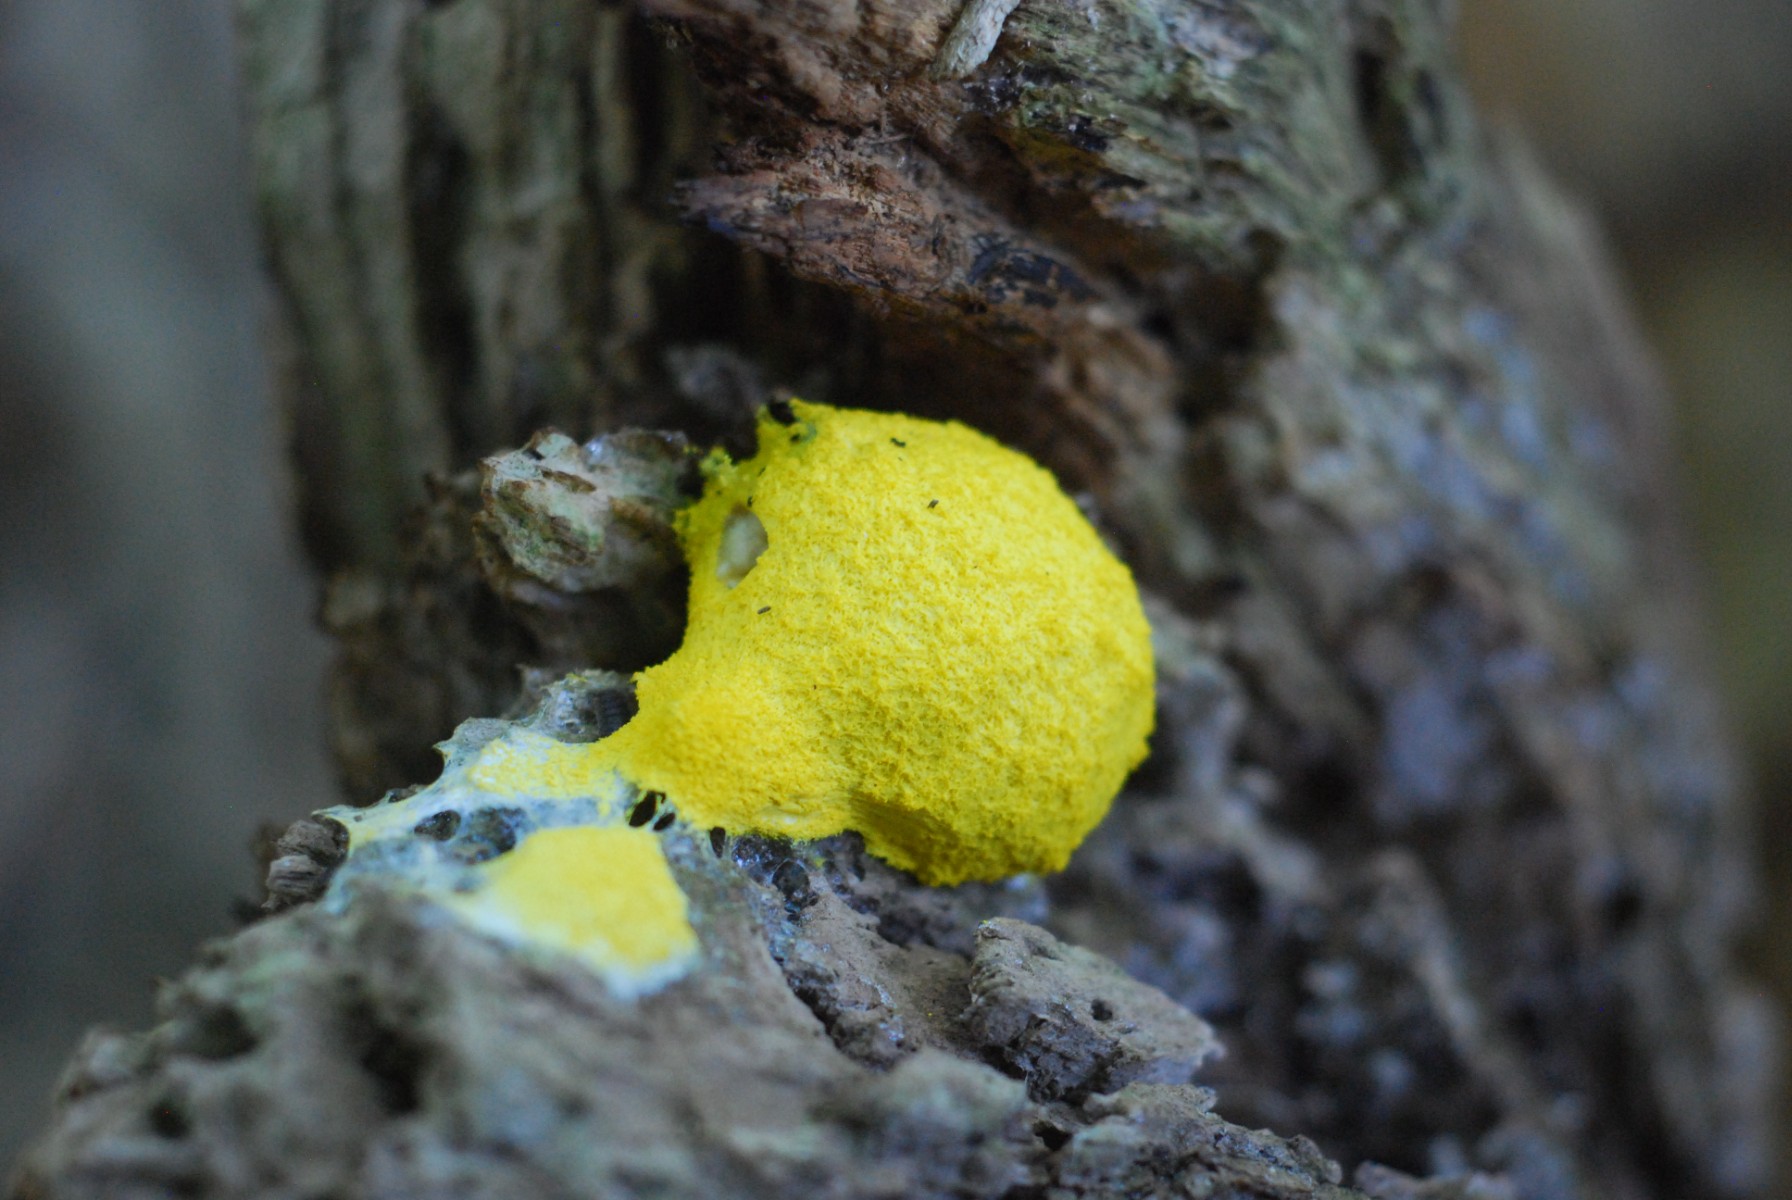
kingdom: Protozoa
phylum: Mycetozoa
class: Myxomycetes
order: Physarales
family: Physaraceae
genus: Fuligo
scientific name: Fuligo septica
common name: gul troldsmør
